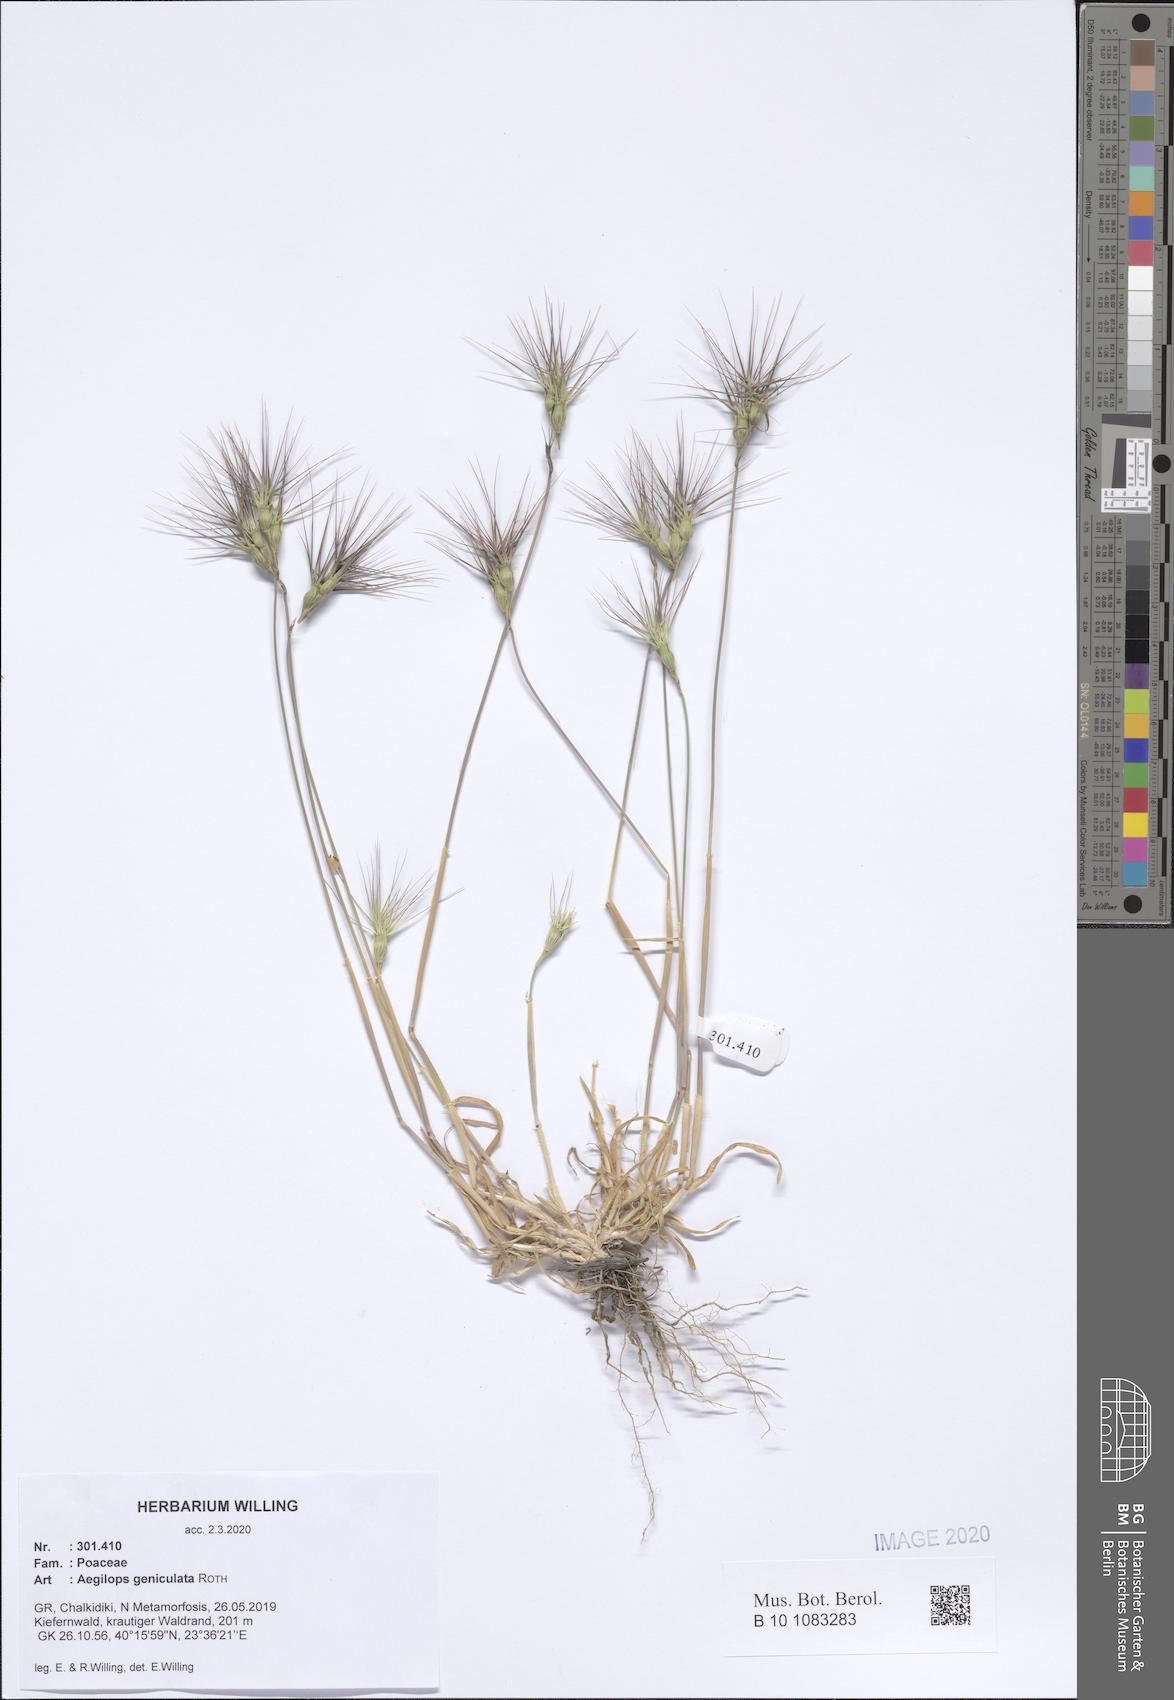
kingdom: Plantae
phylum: Tracheophyta
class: Liliopsida
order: Poales
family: Poaceae
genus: Aegilops
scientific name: Aegilops geniculata
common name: Ovate goat grass
